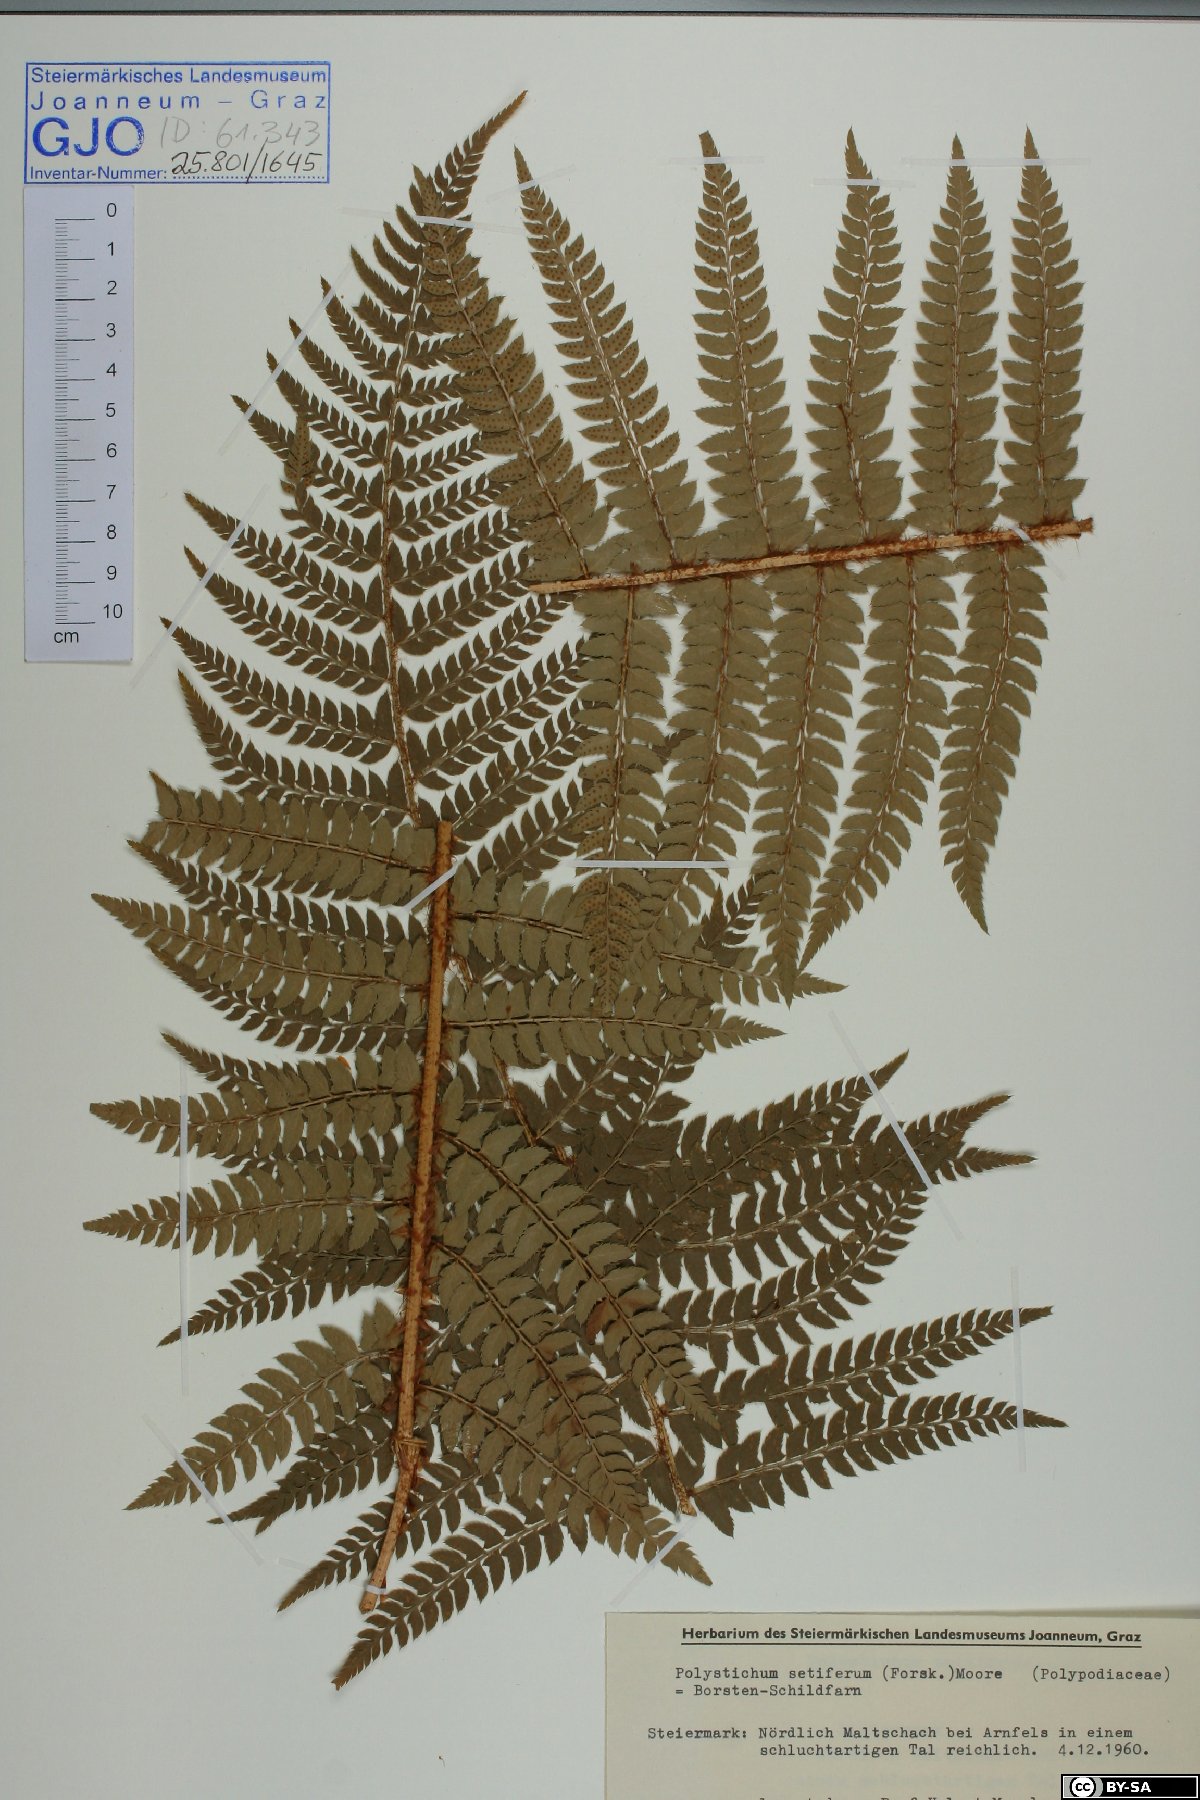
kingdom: Plantae
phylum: Tracheophyta
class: Polypodiopsida
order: Polypodiales
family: Dryopteridaceae
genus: Polystichum
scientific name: Polystichum setiferum
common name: Soft shield-fern
